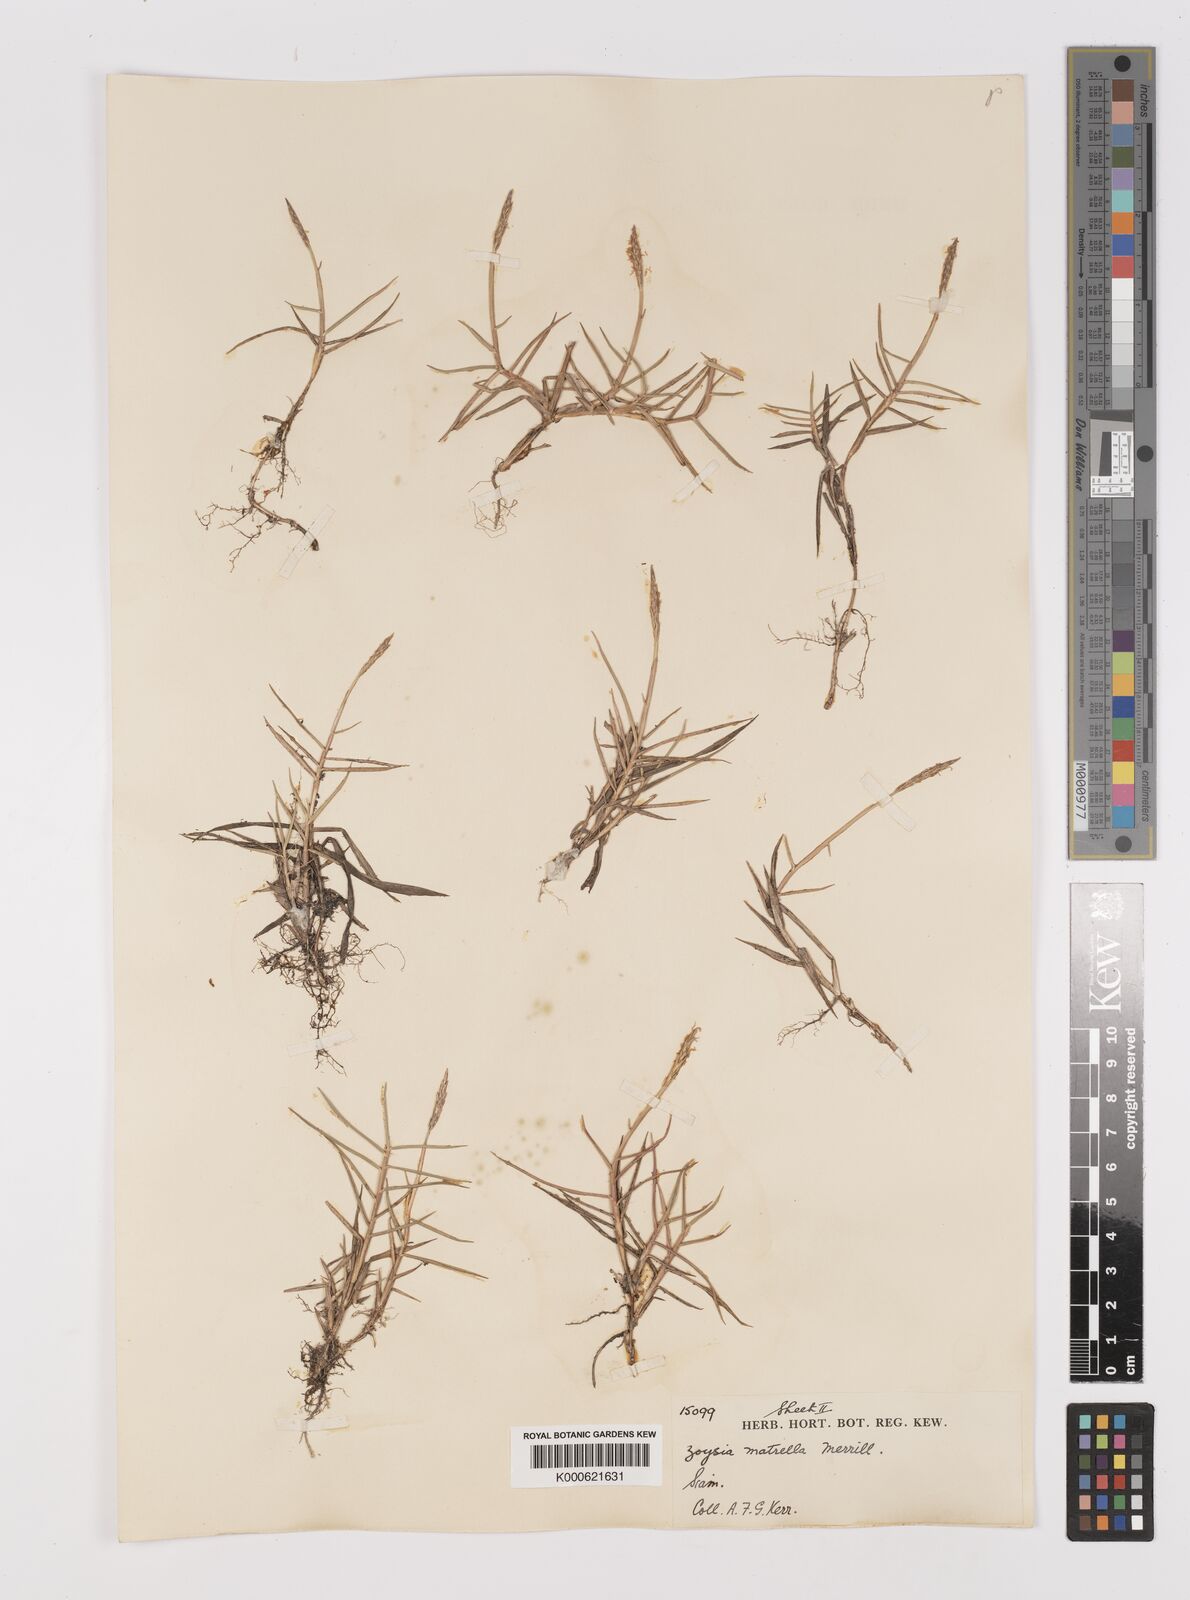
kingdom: Plantae
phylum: Tracheophyta
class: Liliopsida
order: Poales
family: Poaceae
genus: Zoysia
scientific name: Zoysia matrella
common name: Manila grass
